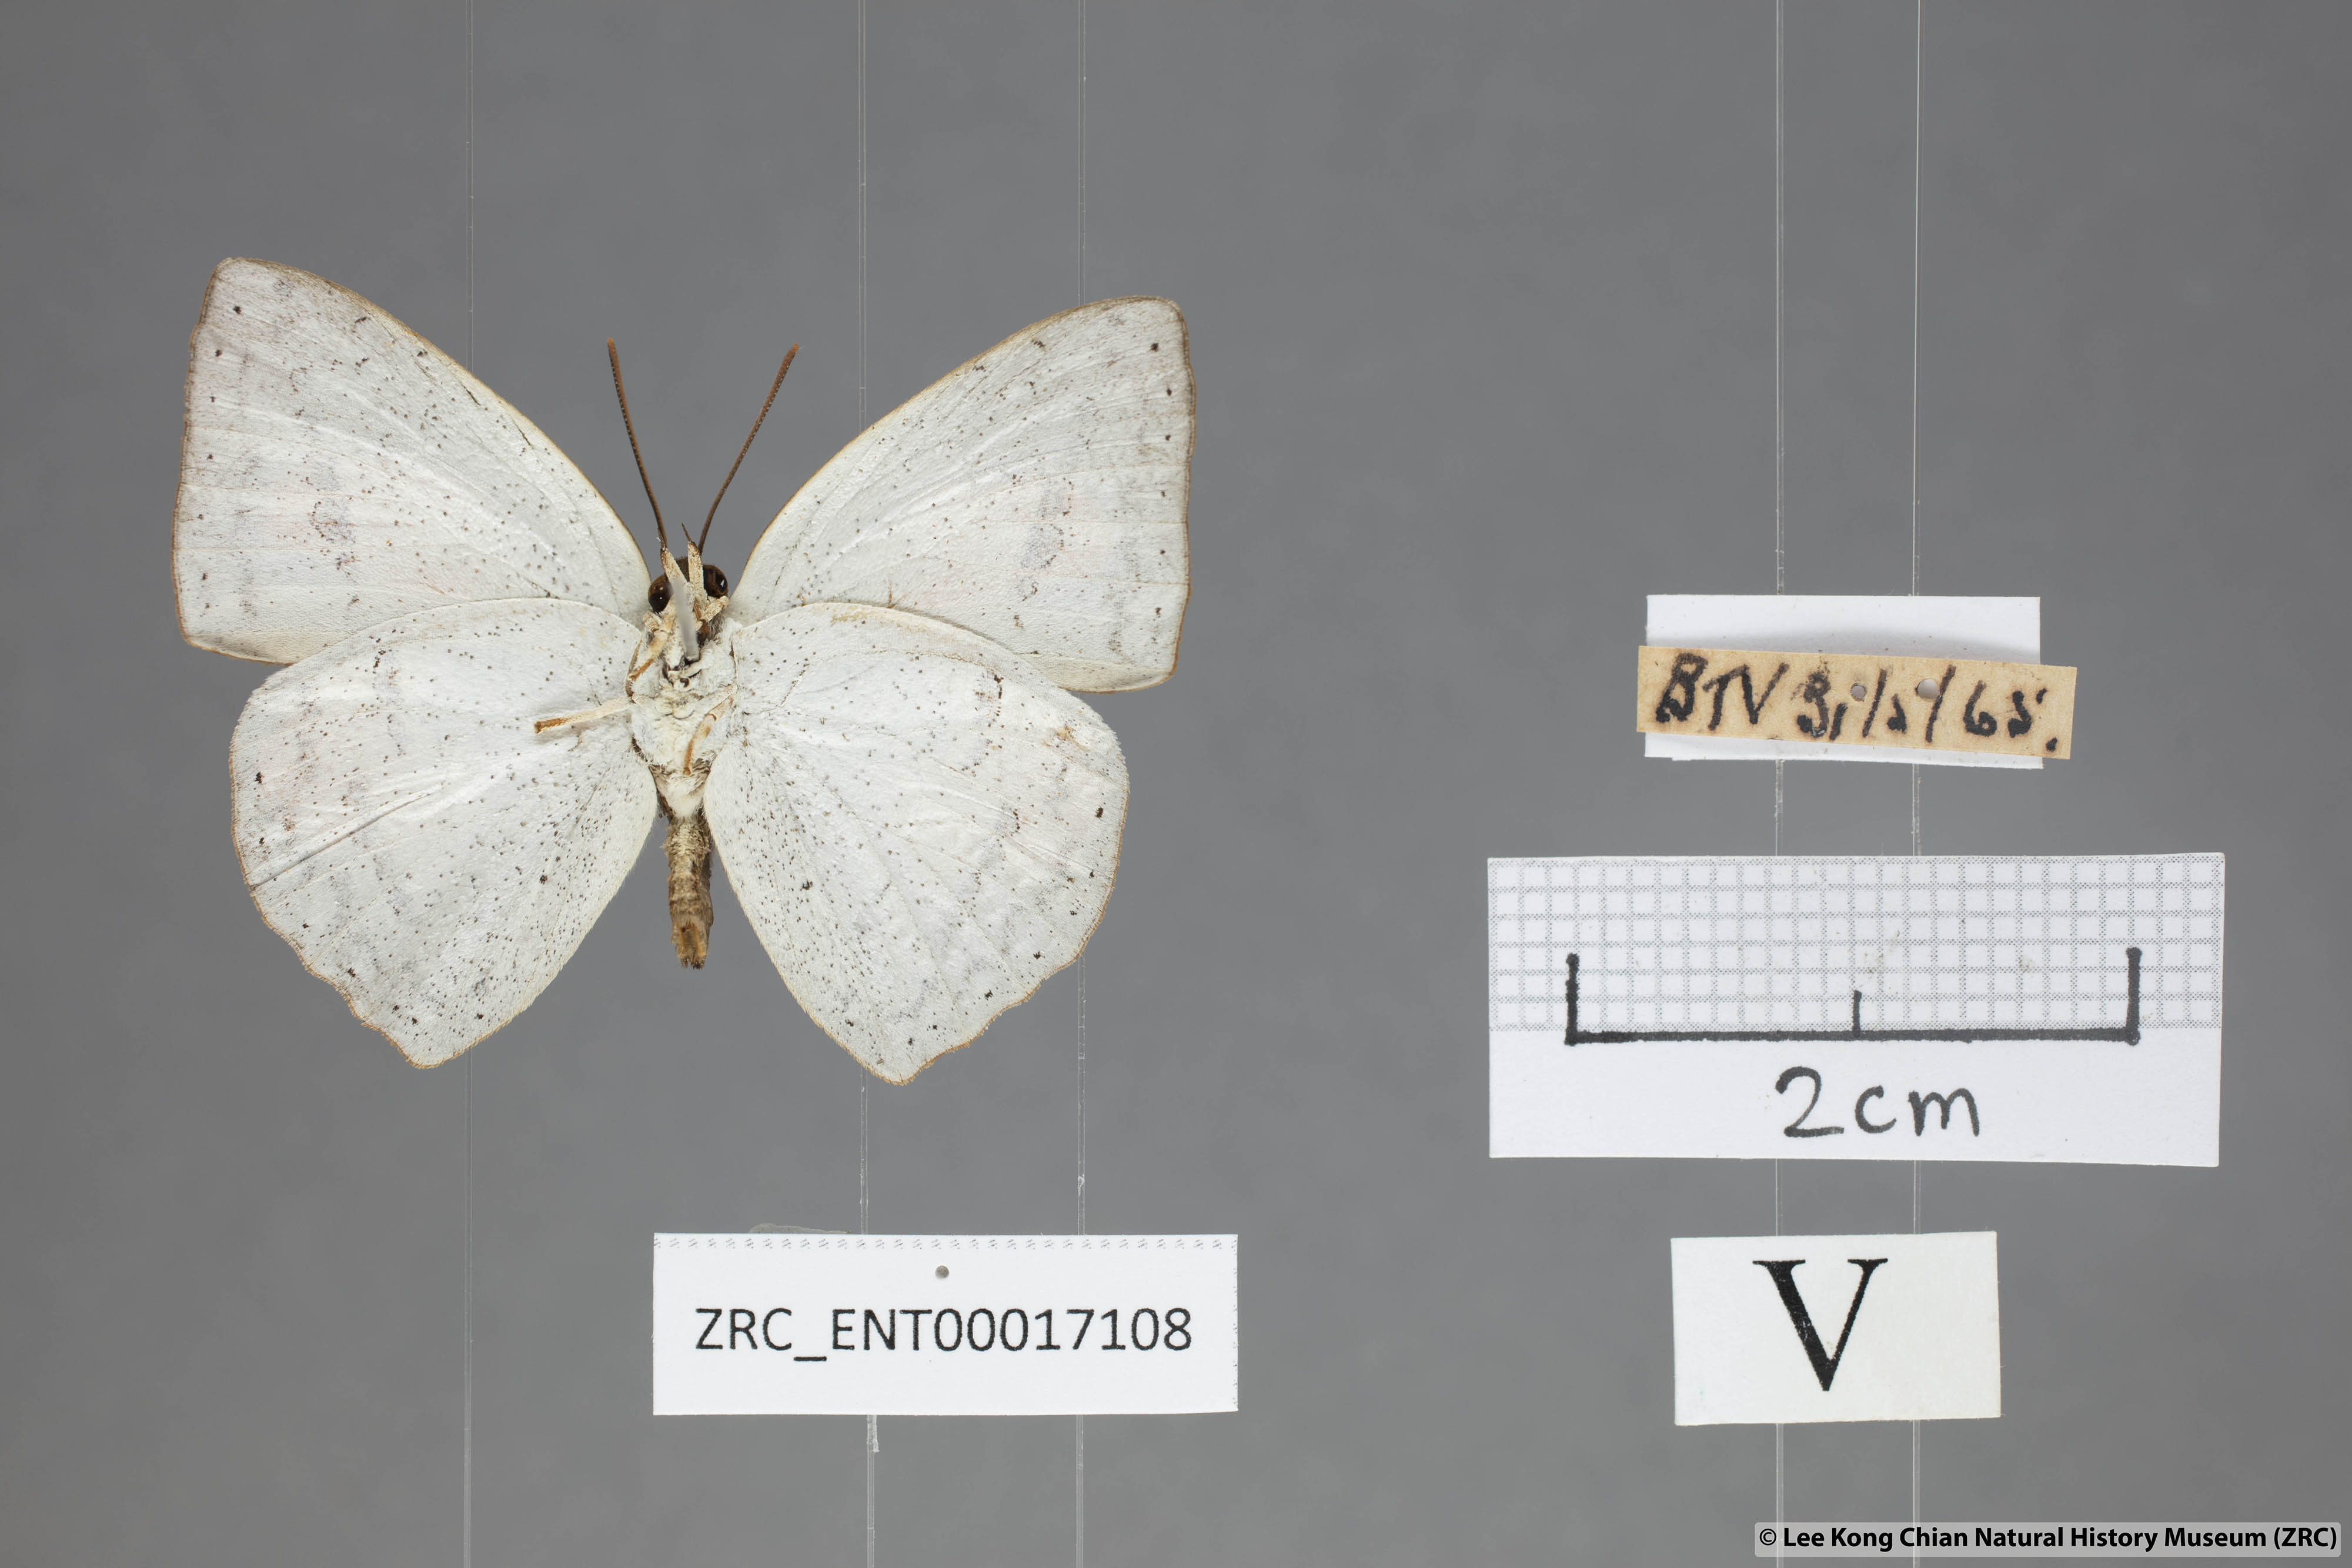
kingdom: Animalia
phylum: Arthropoda
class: Insecta
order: Lepidoptera
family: Lycaenidae
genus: Curetis
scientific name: Curetis bulis
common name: Bright sunbeam
